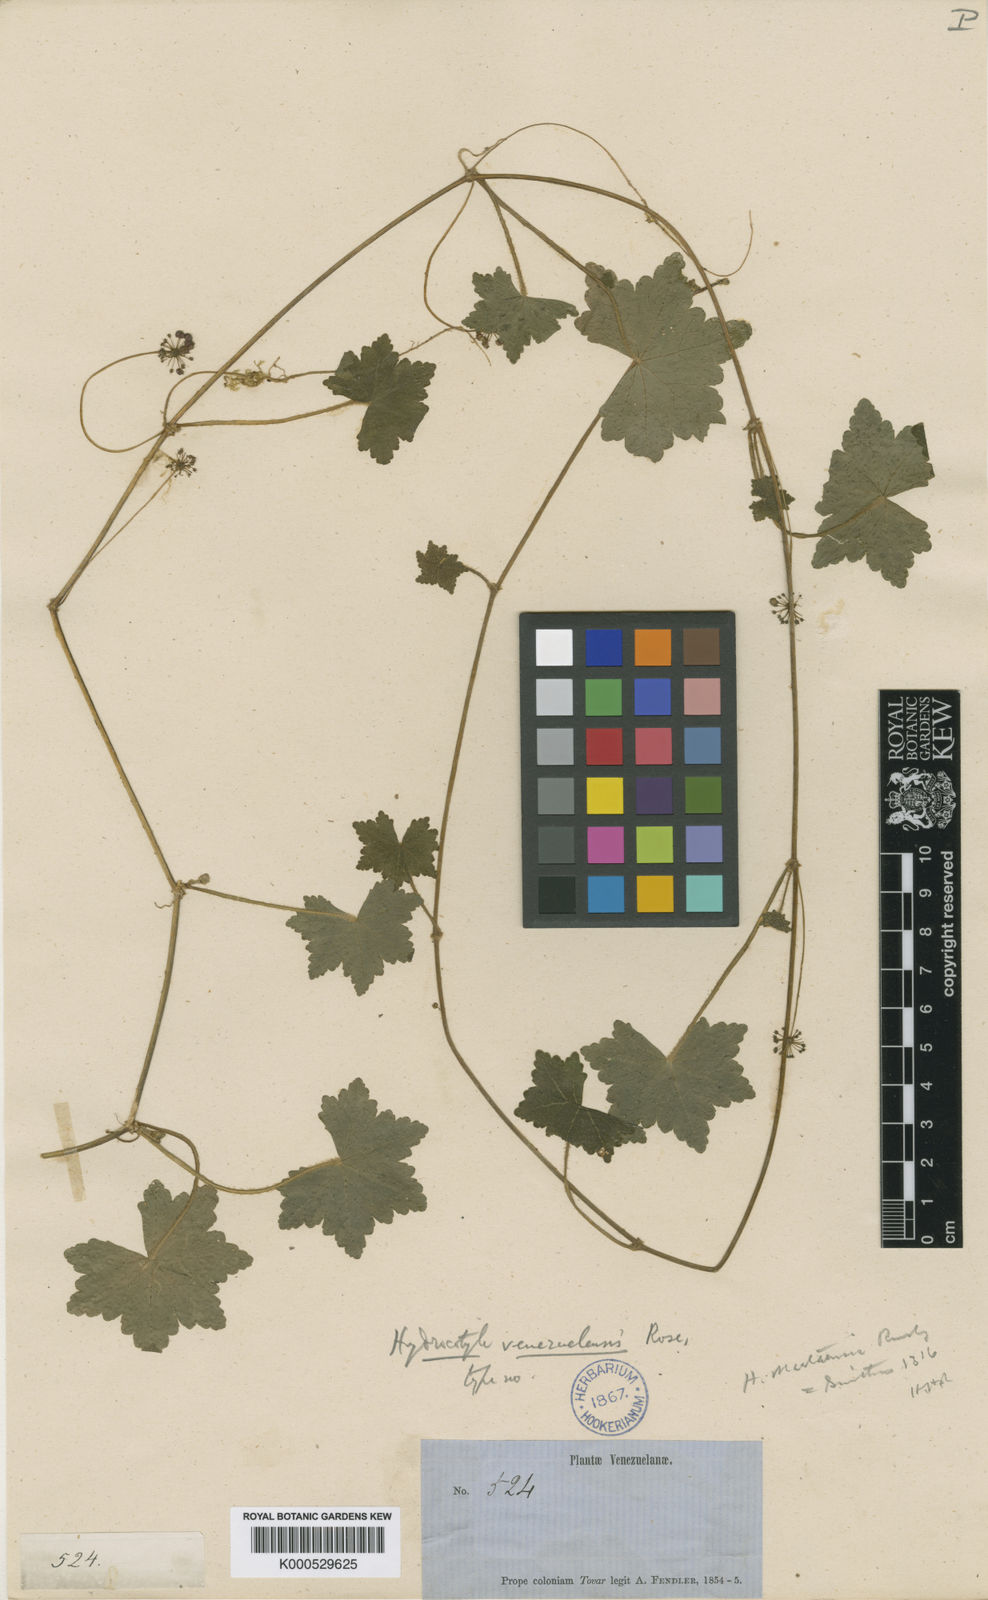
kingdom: Plantae
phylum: Tracheophyta
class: Magnoliopsida
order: Apiales
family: Araliaceae
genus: Hydrocotyle
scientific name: Hydrocotyle venezuelensis
